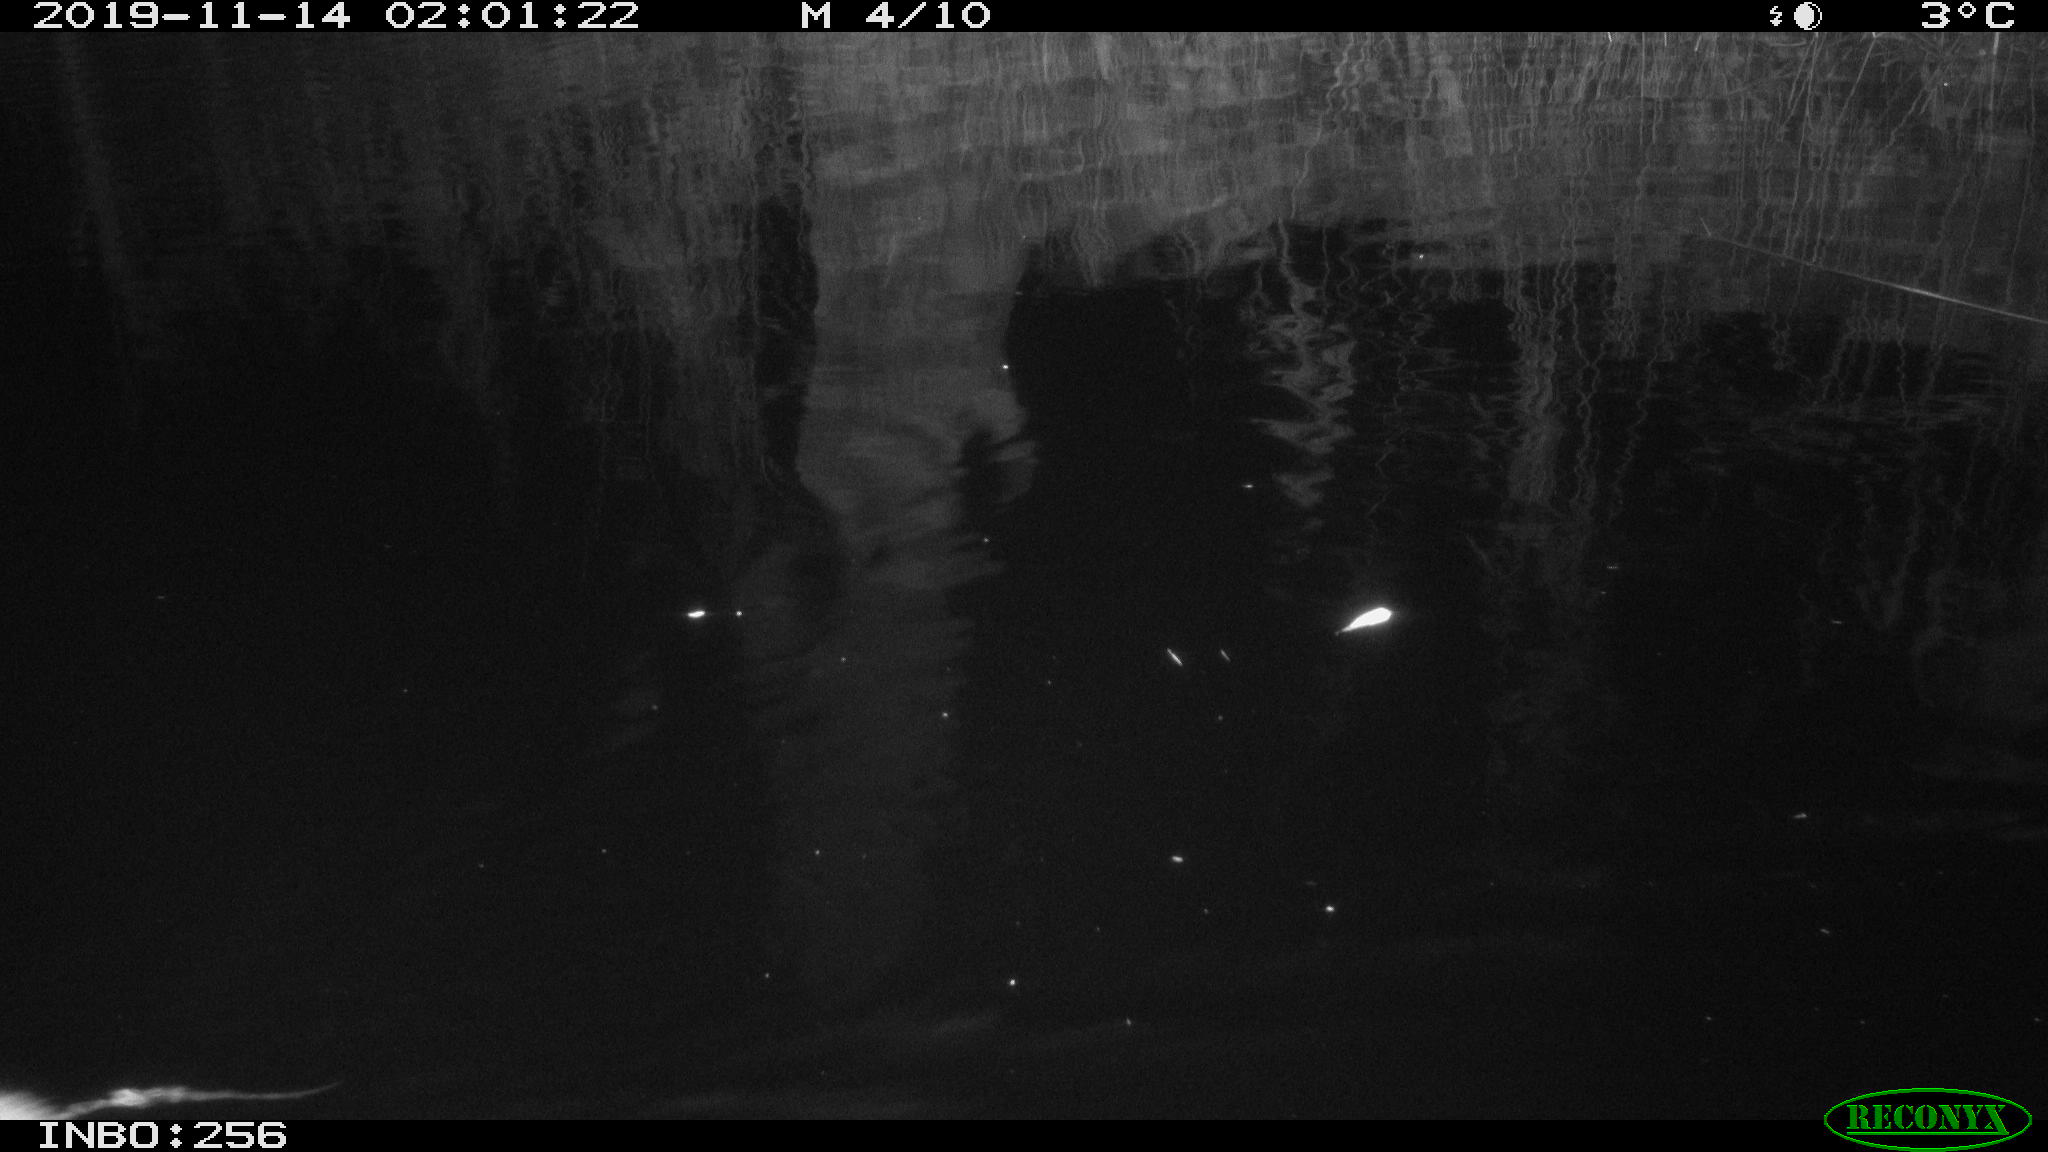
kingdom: Animalia
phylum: Chordata
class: Mammalia
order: Rodentia
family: Muridae
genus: Rattus
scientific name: Rattus norvegicus
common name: Brown rat
